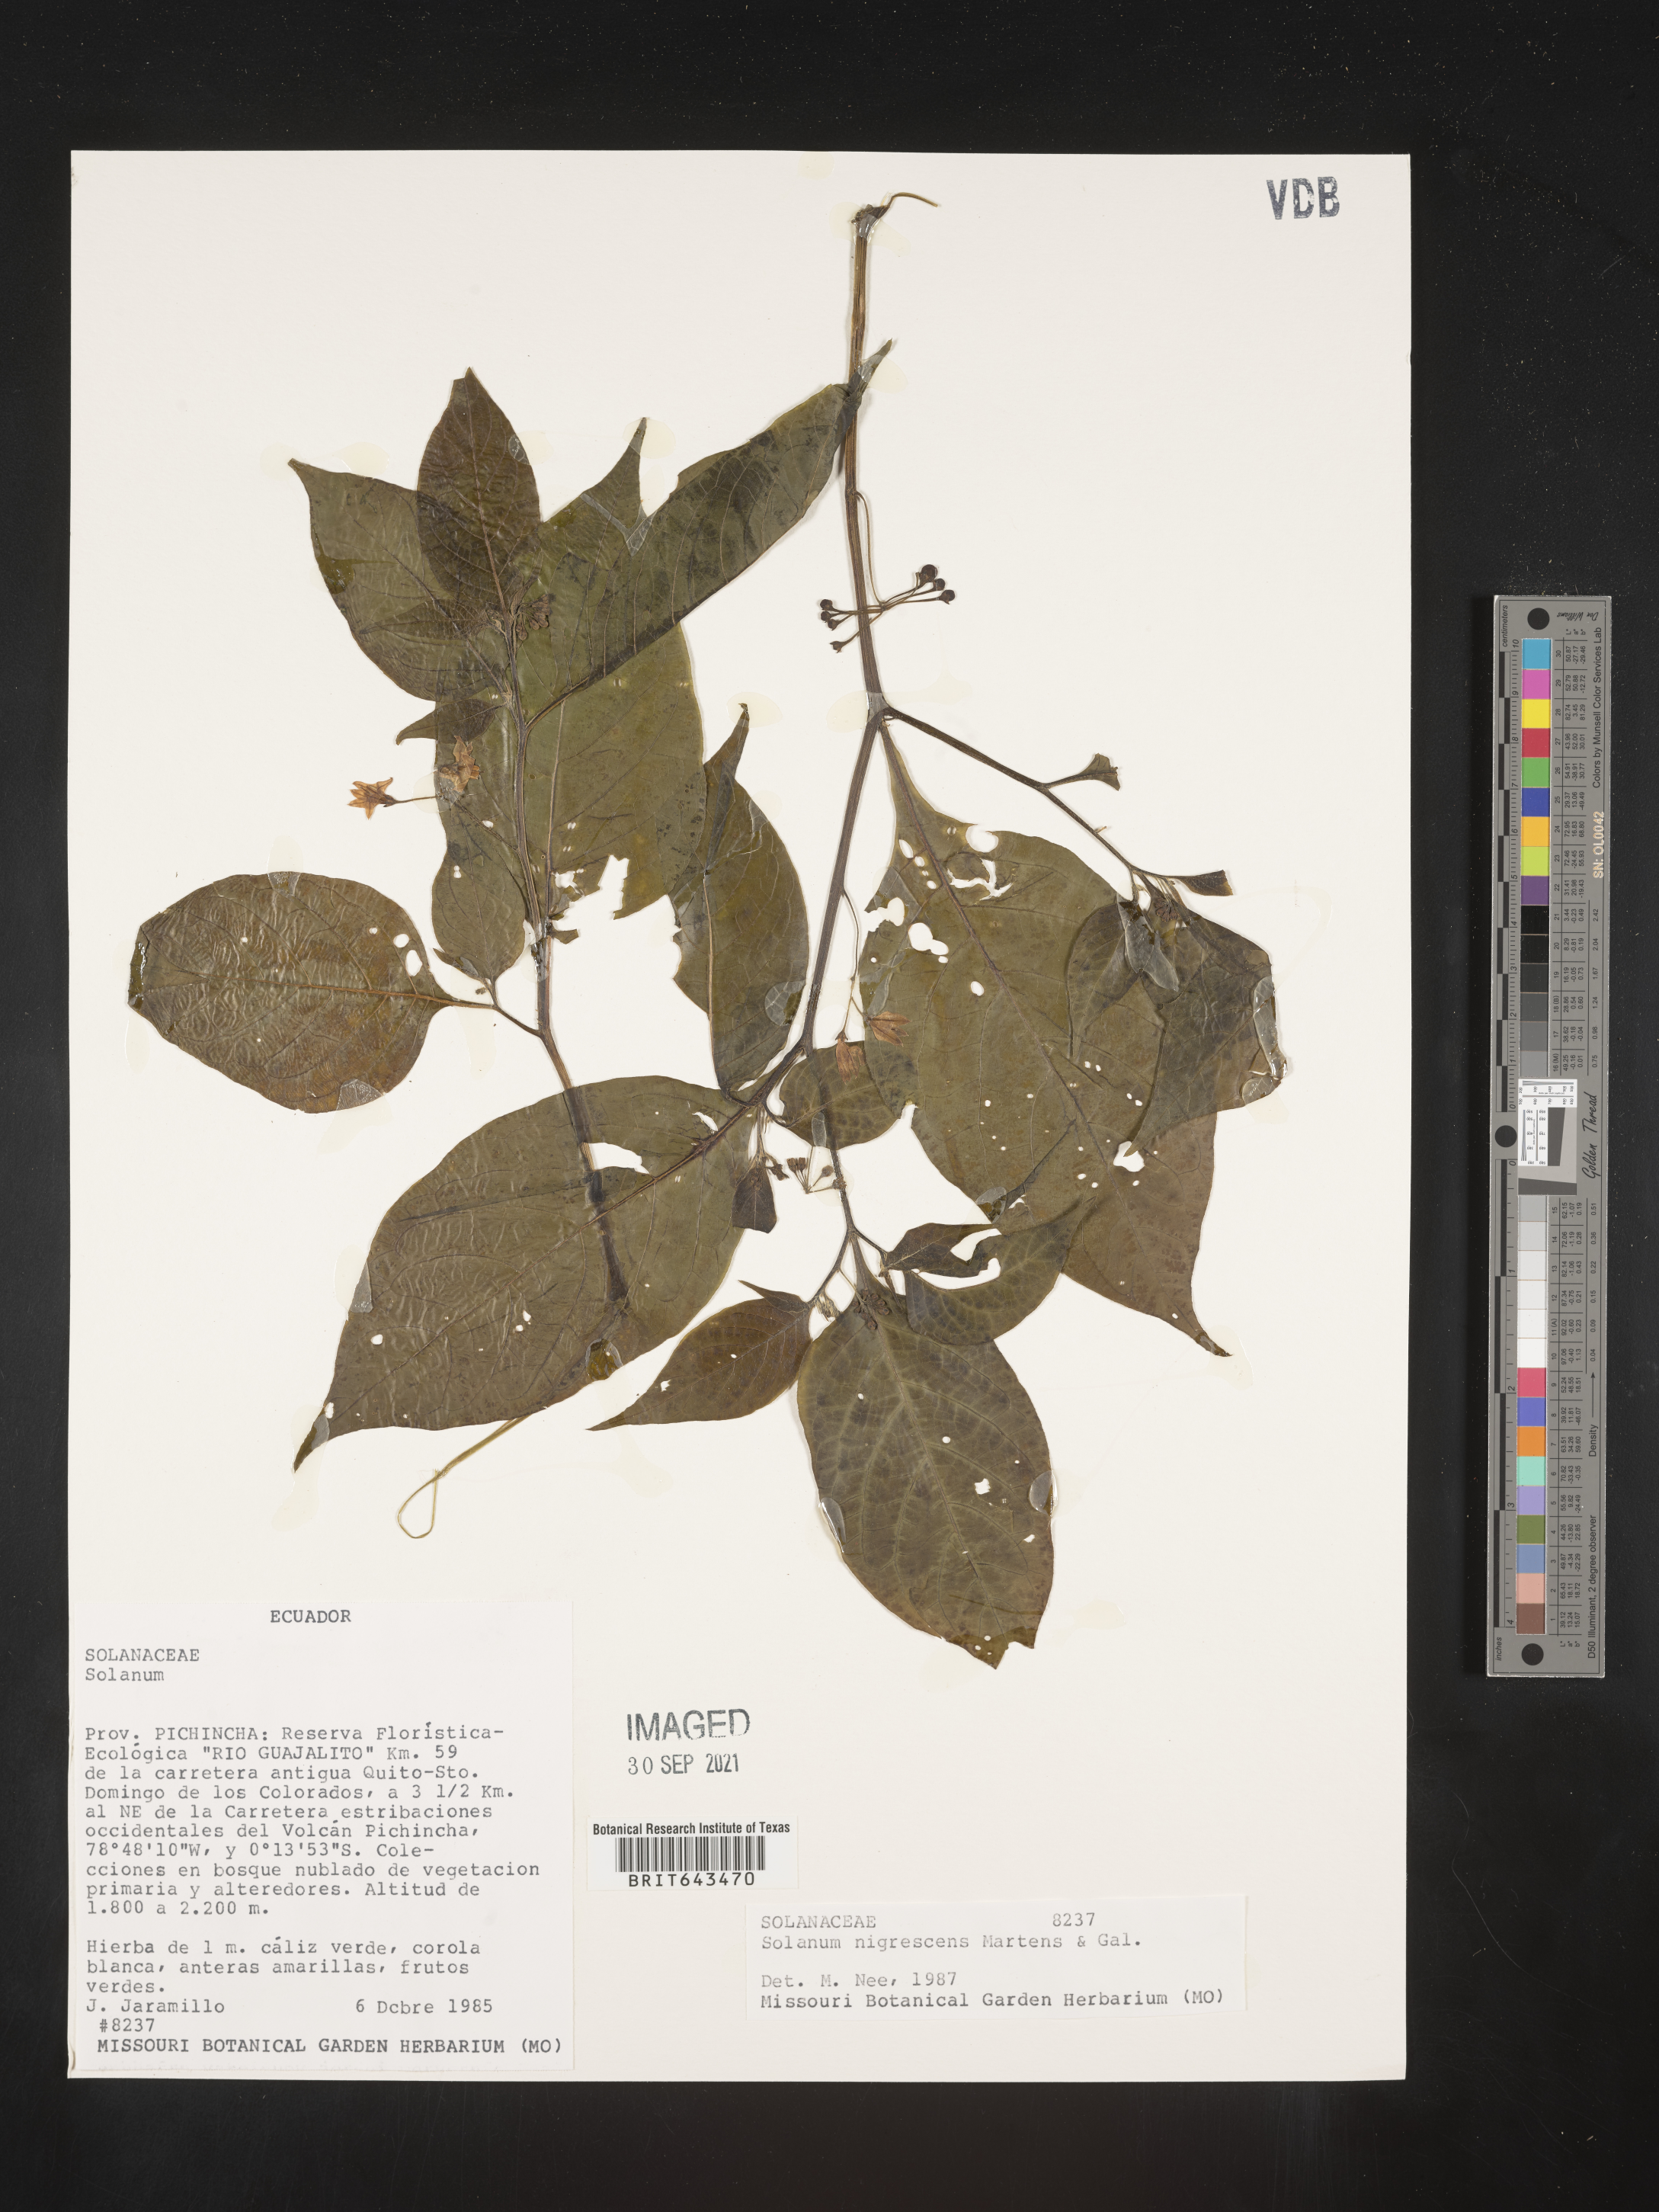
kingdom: Plantae
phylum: Tracheophyta
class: Magnoliopsida
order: Solanales
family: Solanaceae
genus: Solanum
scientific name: Solanum
